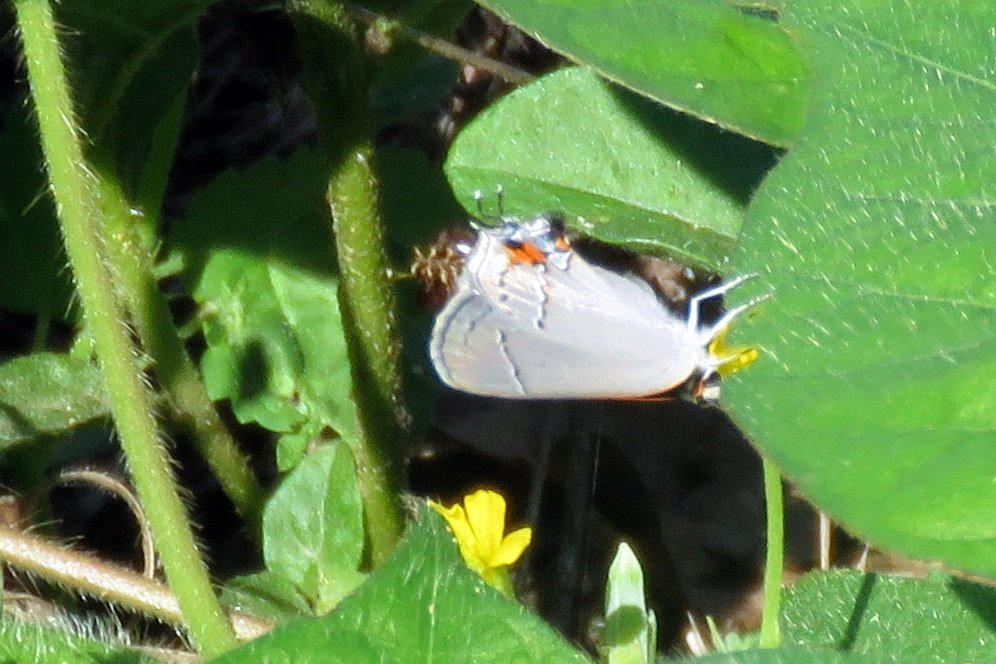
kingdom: Animalia
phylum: Arthropoda
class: Insecta
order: Lepidoptera
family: Lycaenidae
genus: Strymon
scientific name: Strymon melinus
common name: Gray Hairstreak
